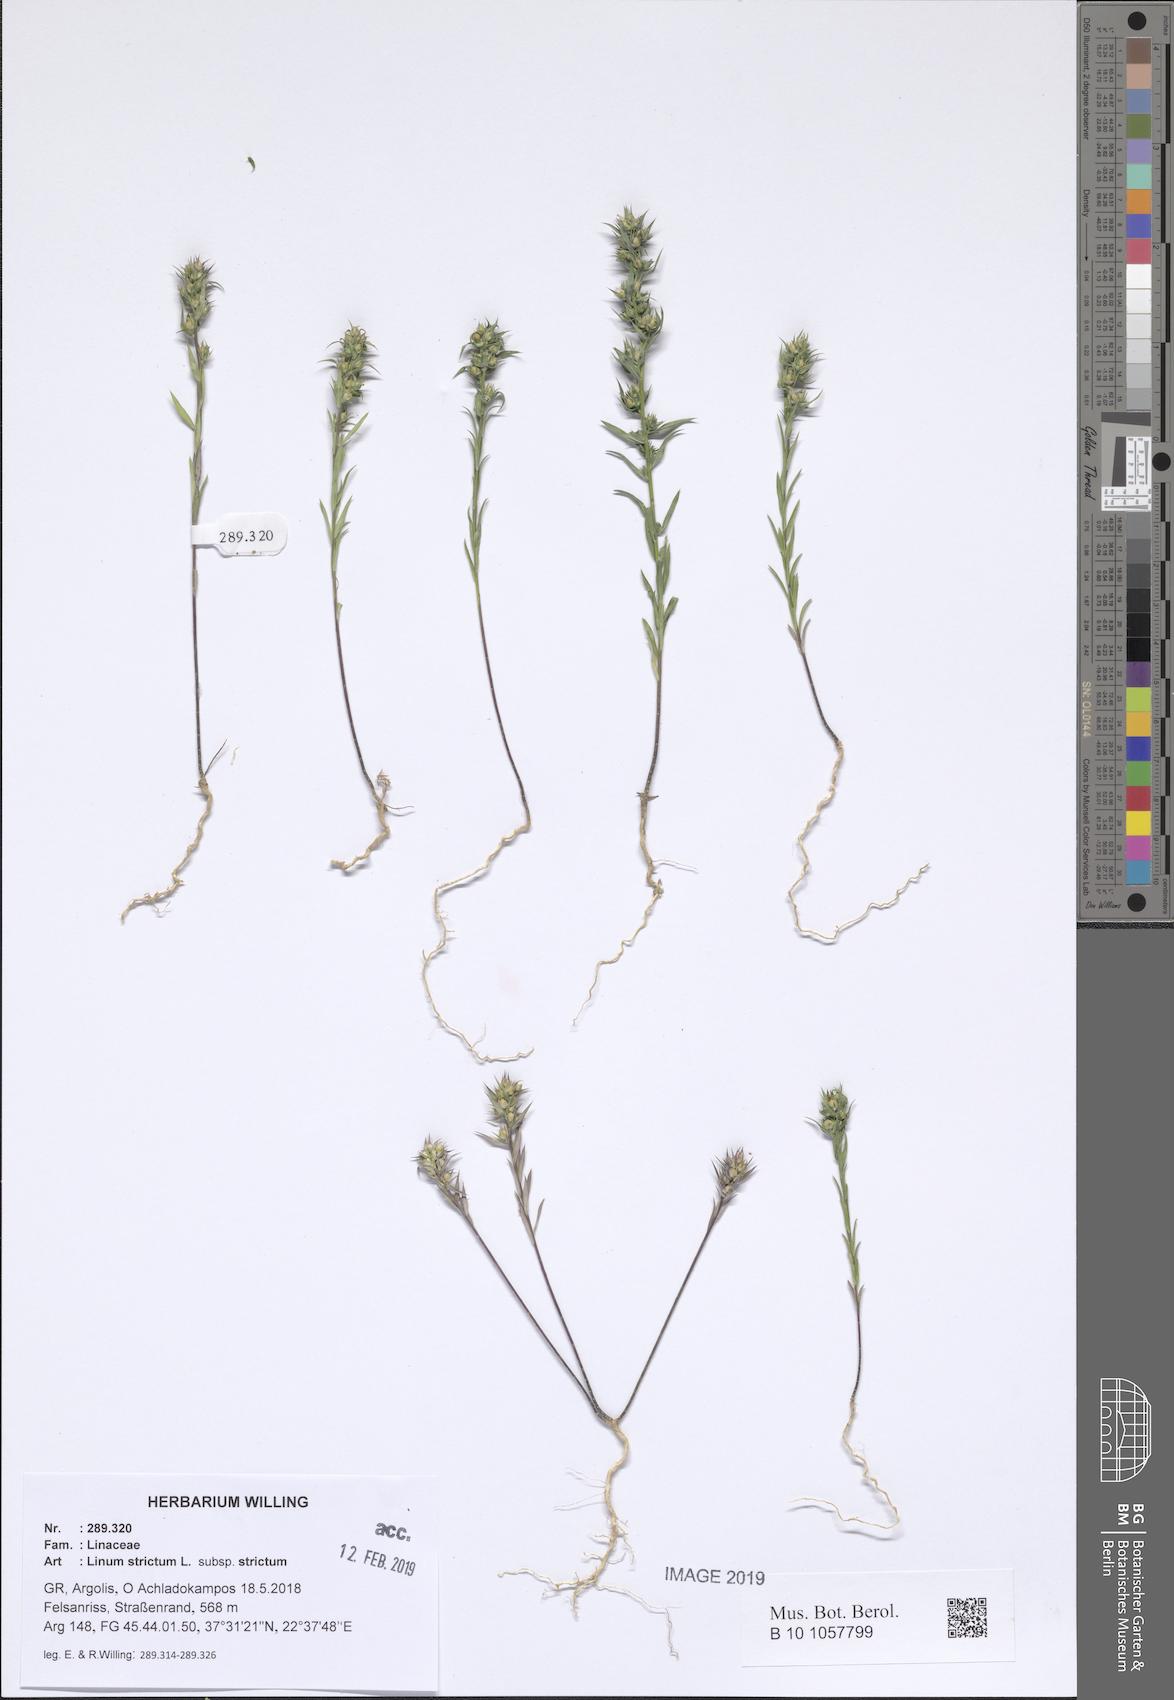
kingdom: Plantae
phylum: Tracheophyta
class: Magnoliopsida
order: Malpighiales
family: Linaceae
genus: Linum
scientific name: Linum strictum
